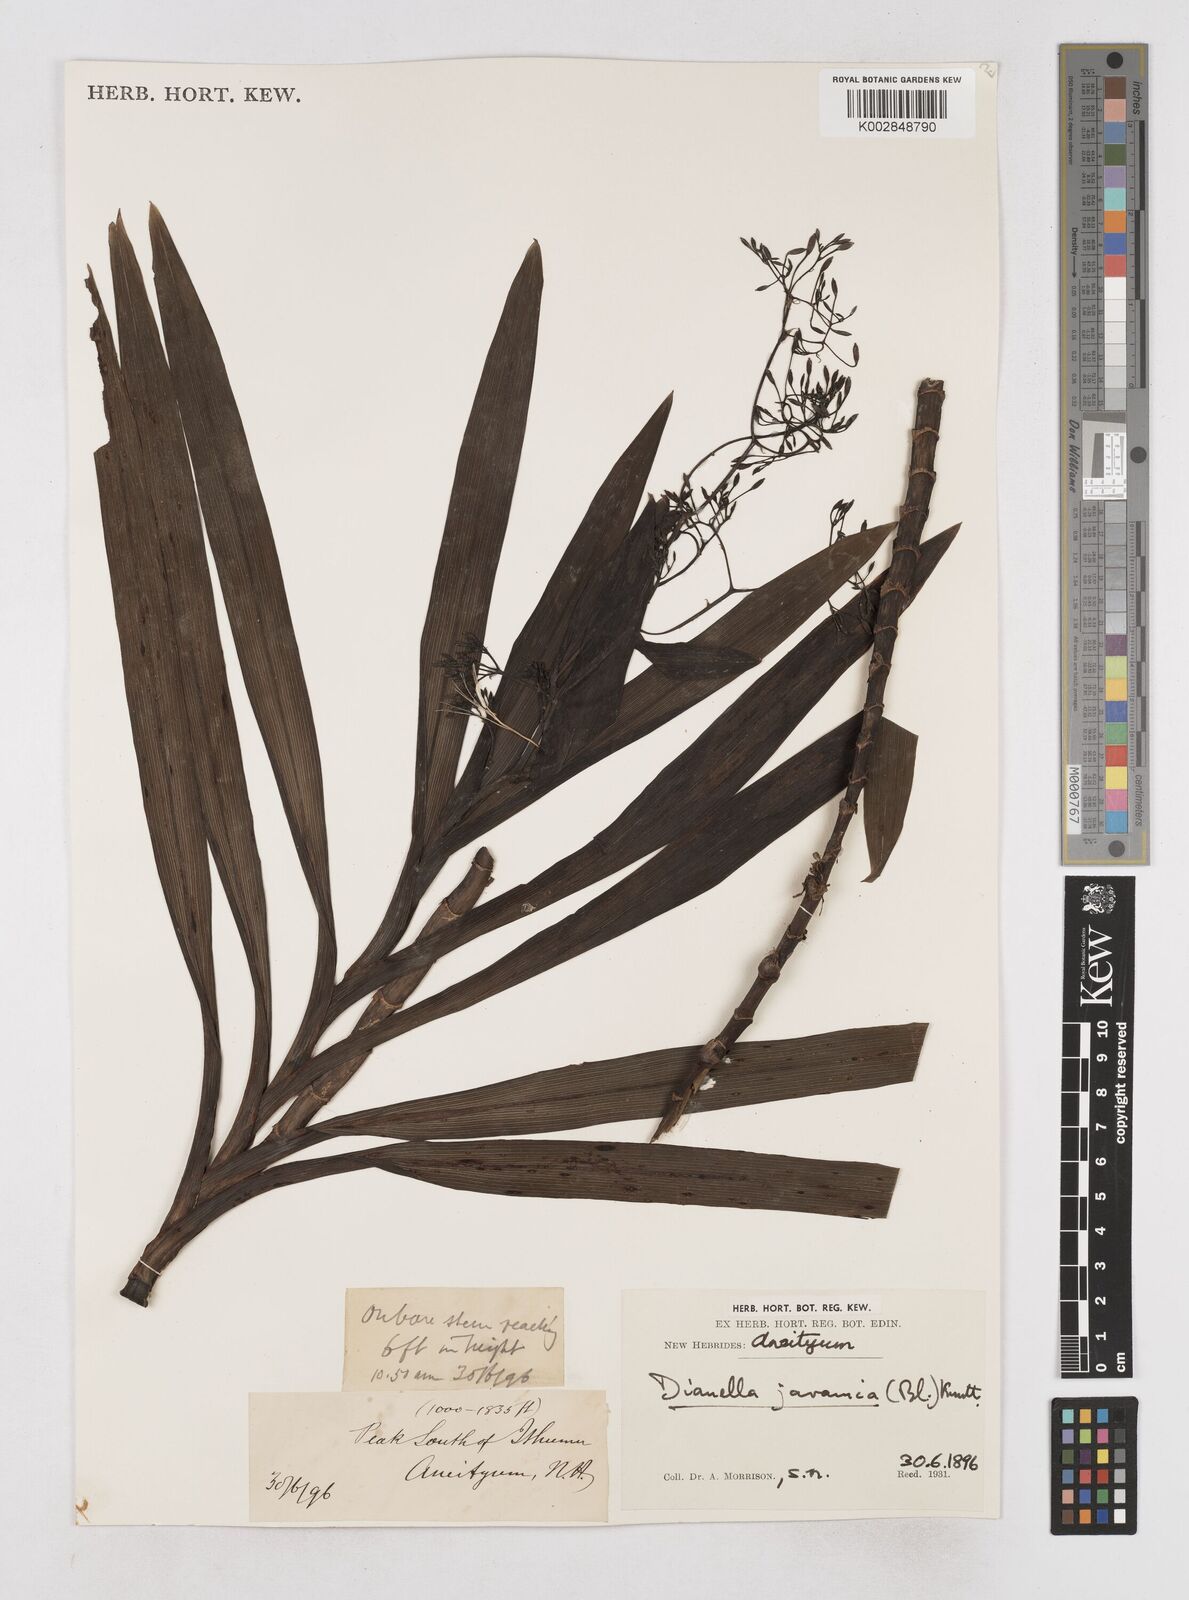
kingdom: Plantae
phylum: Tracheophyta
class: Liliopsida
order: Asparagales
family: Asphodelaceae
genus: Rhuacophila
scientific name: Rhuacophila javanica
